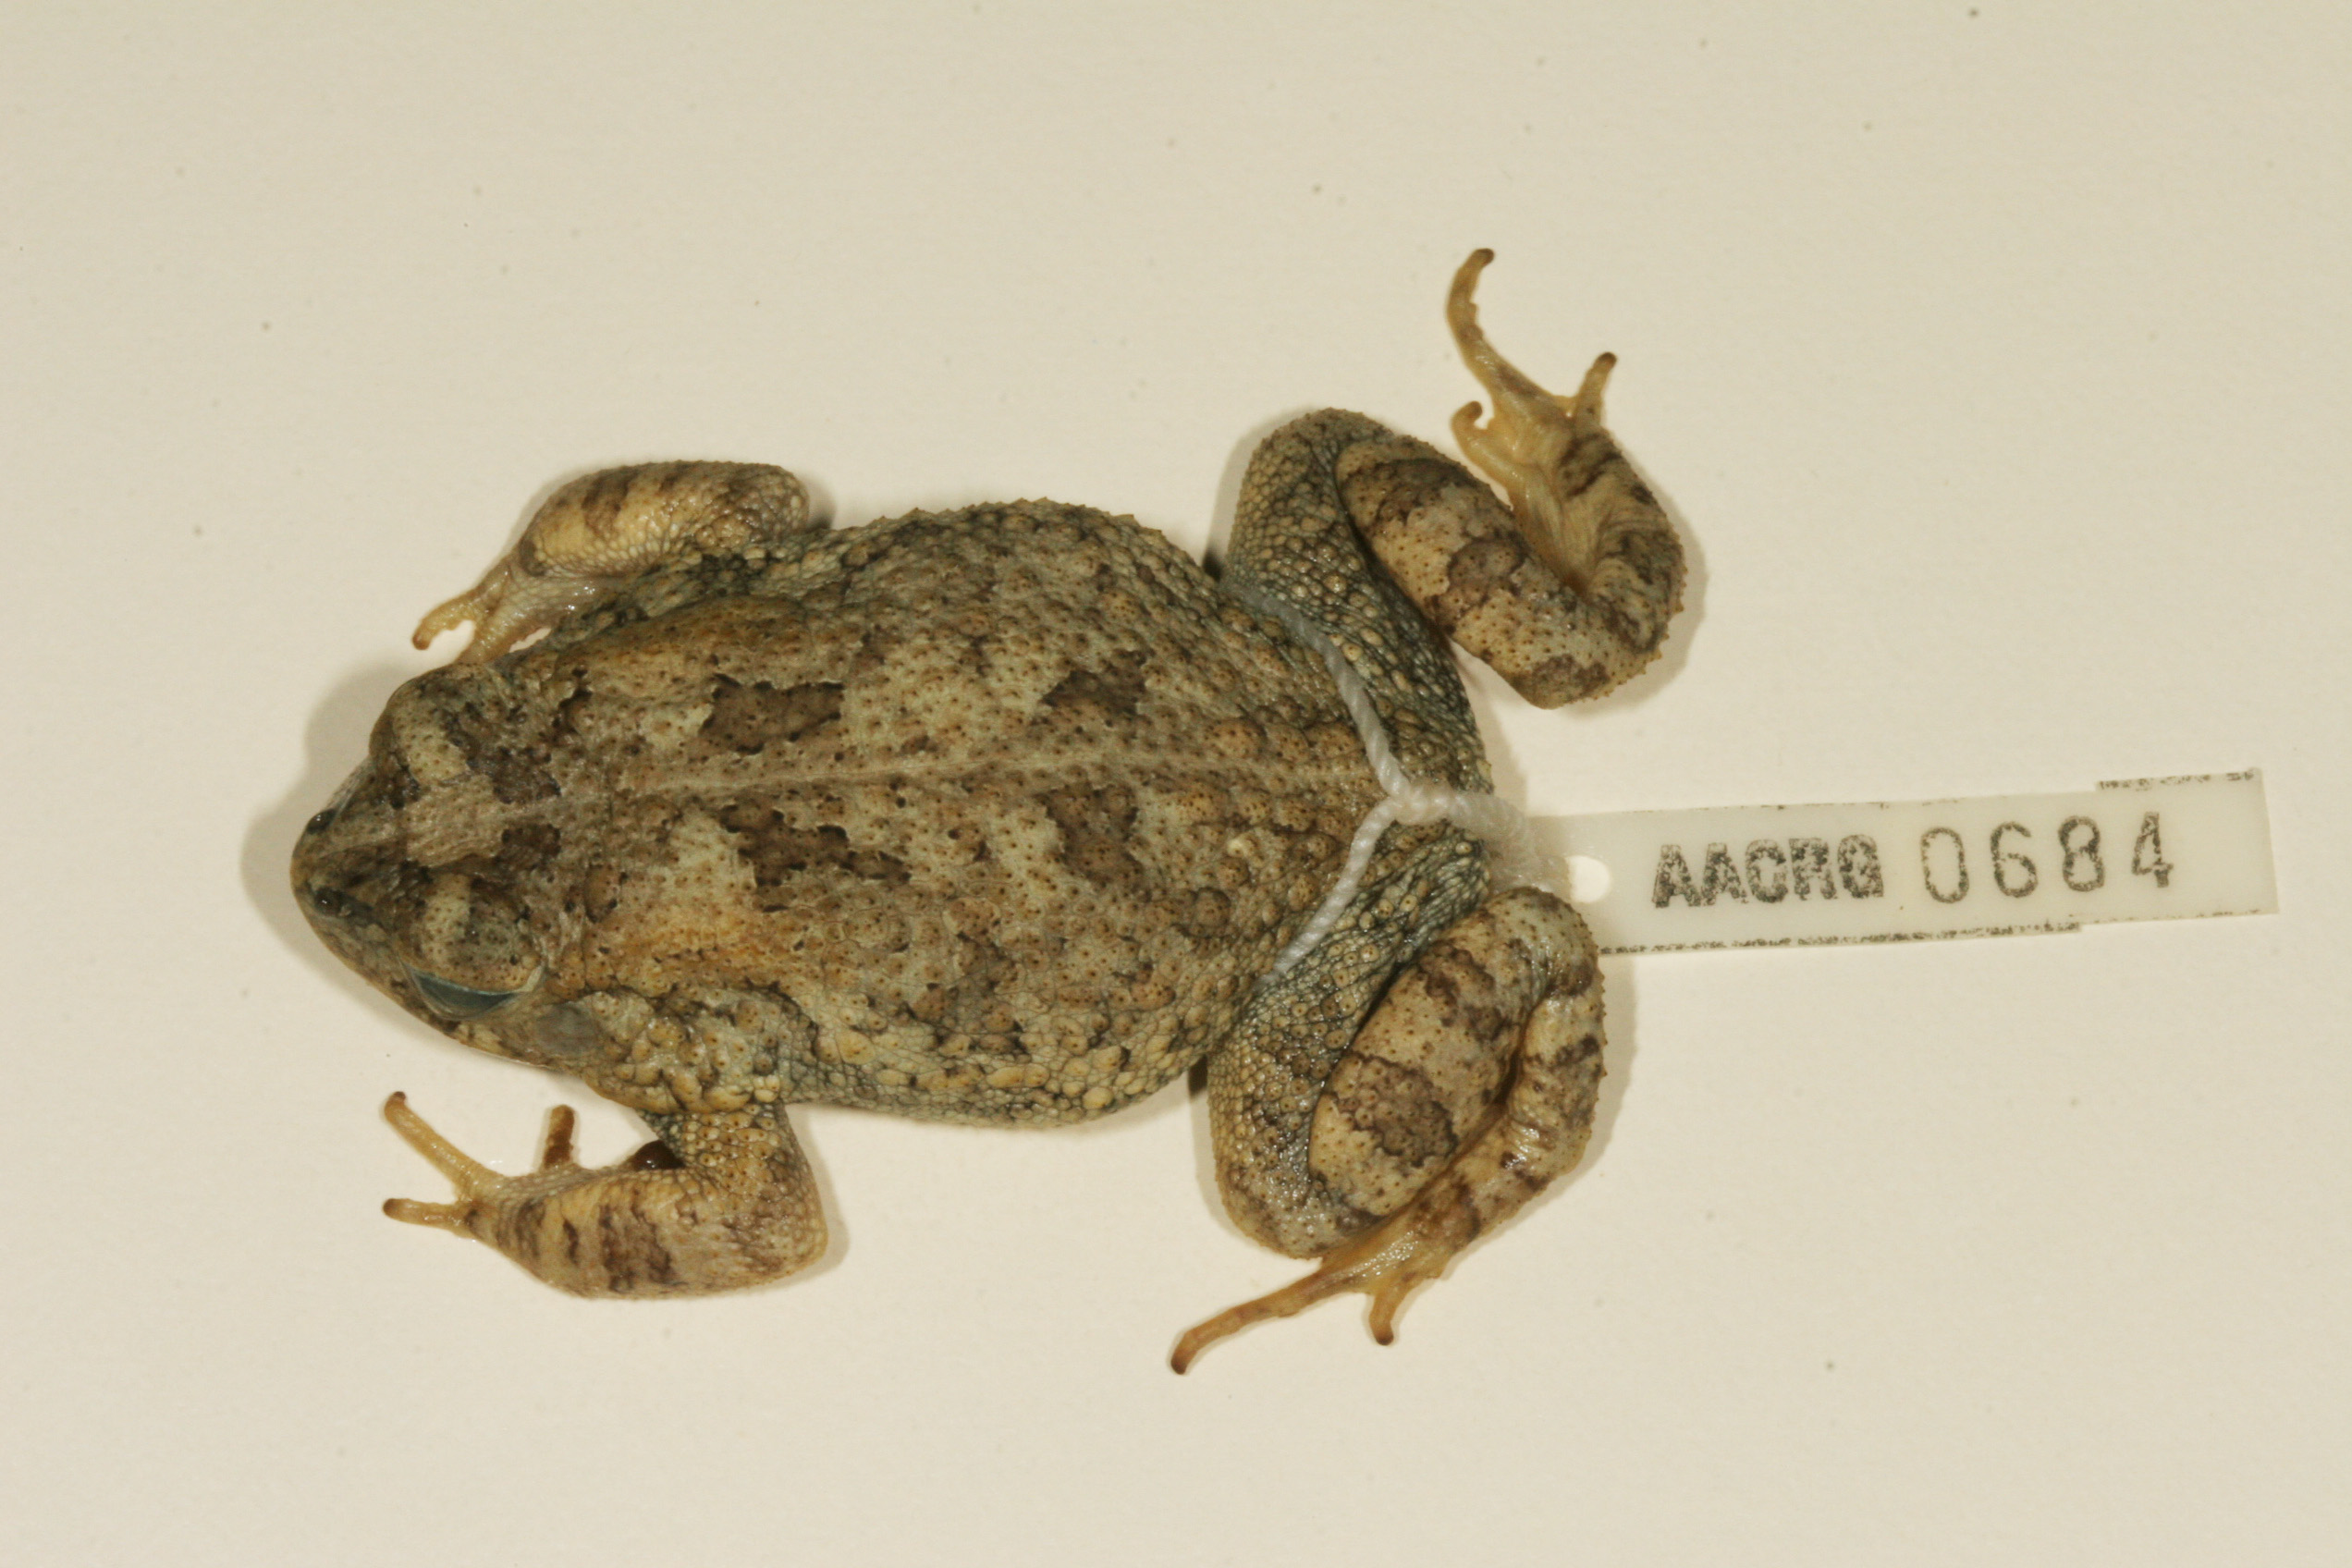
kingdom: Animalia
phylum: Chordata
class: Amphibia
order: Anura
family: Bufonidae
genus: Sclerophrys
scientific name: Sclerophrys maculata
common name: Hallowell's toad
